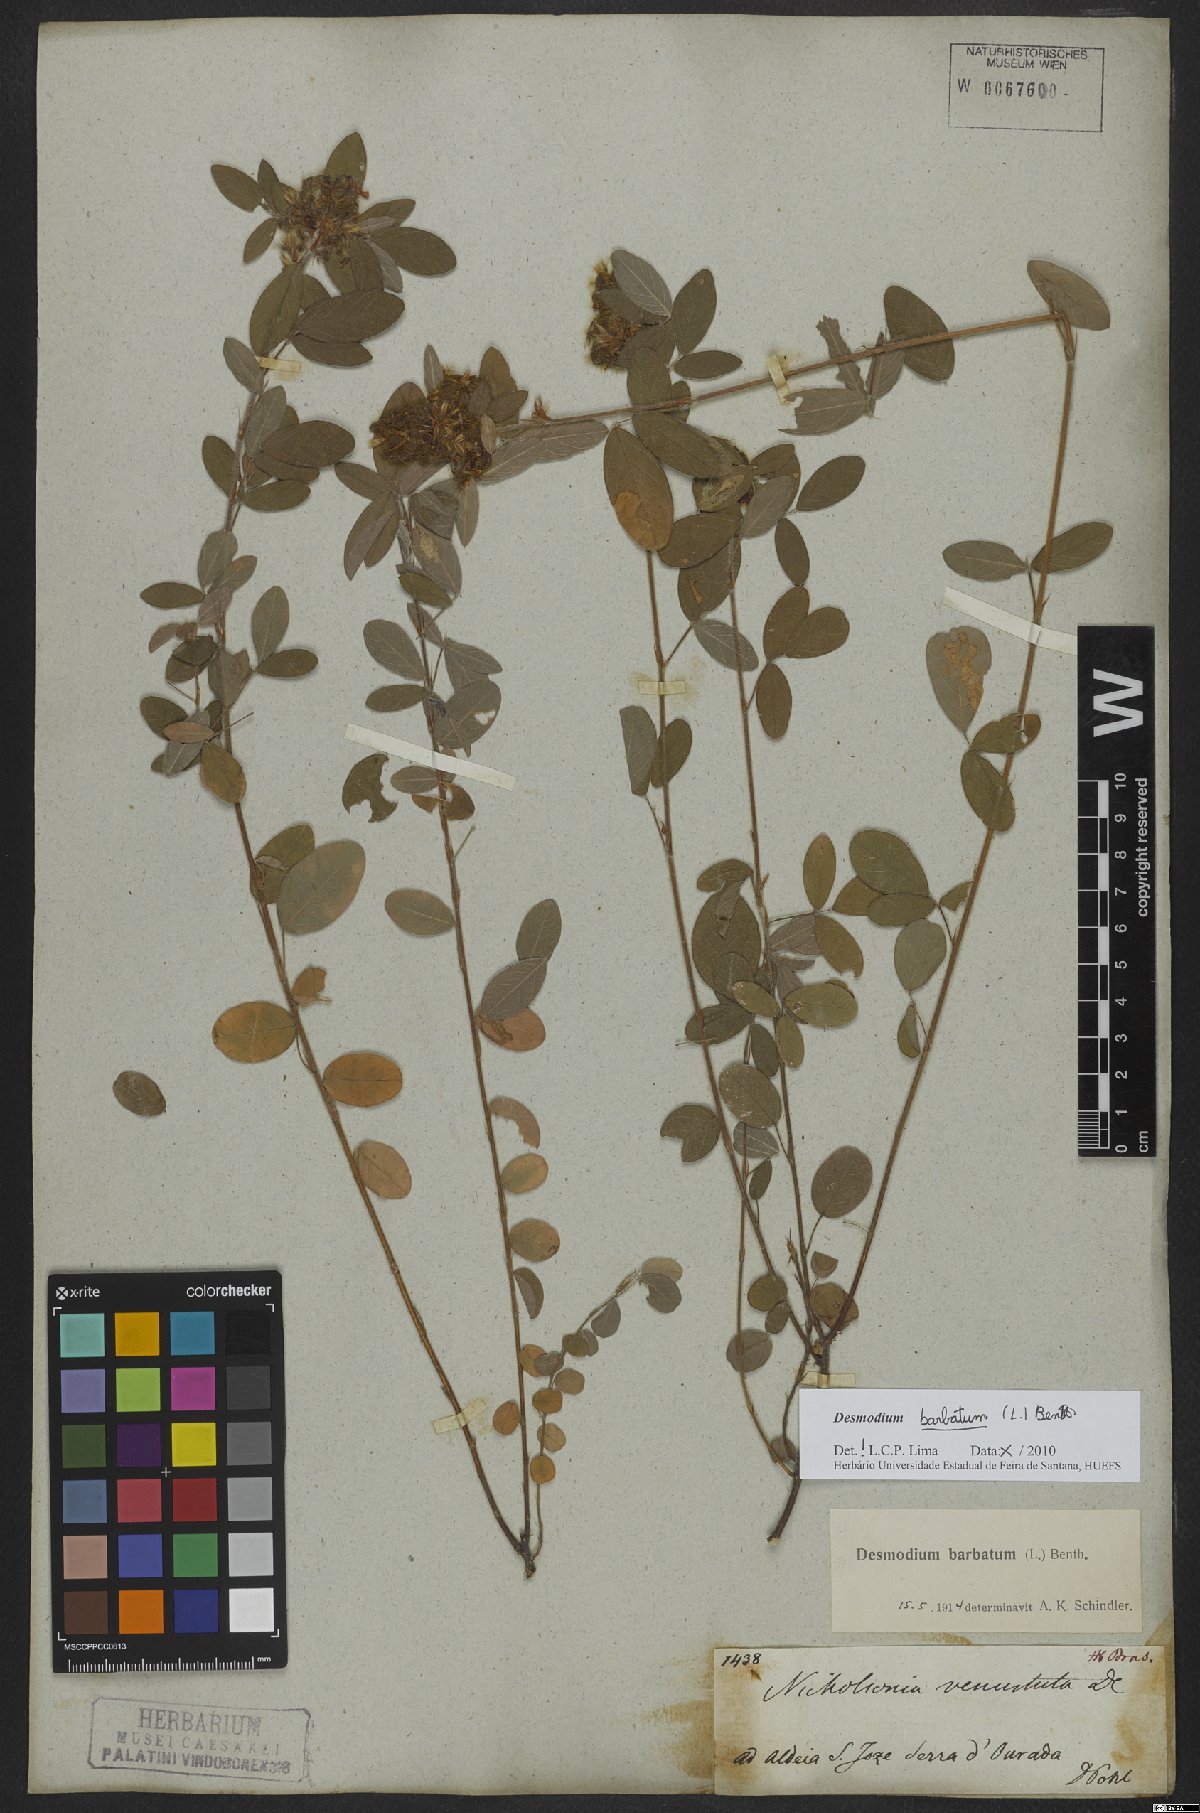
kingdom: Plantae
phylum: Tracheophyta
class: Magnoliopsida
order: Fabales
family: Fabaceae
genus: Grona
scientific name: Grona barbata
